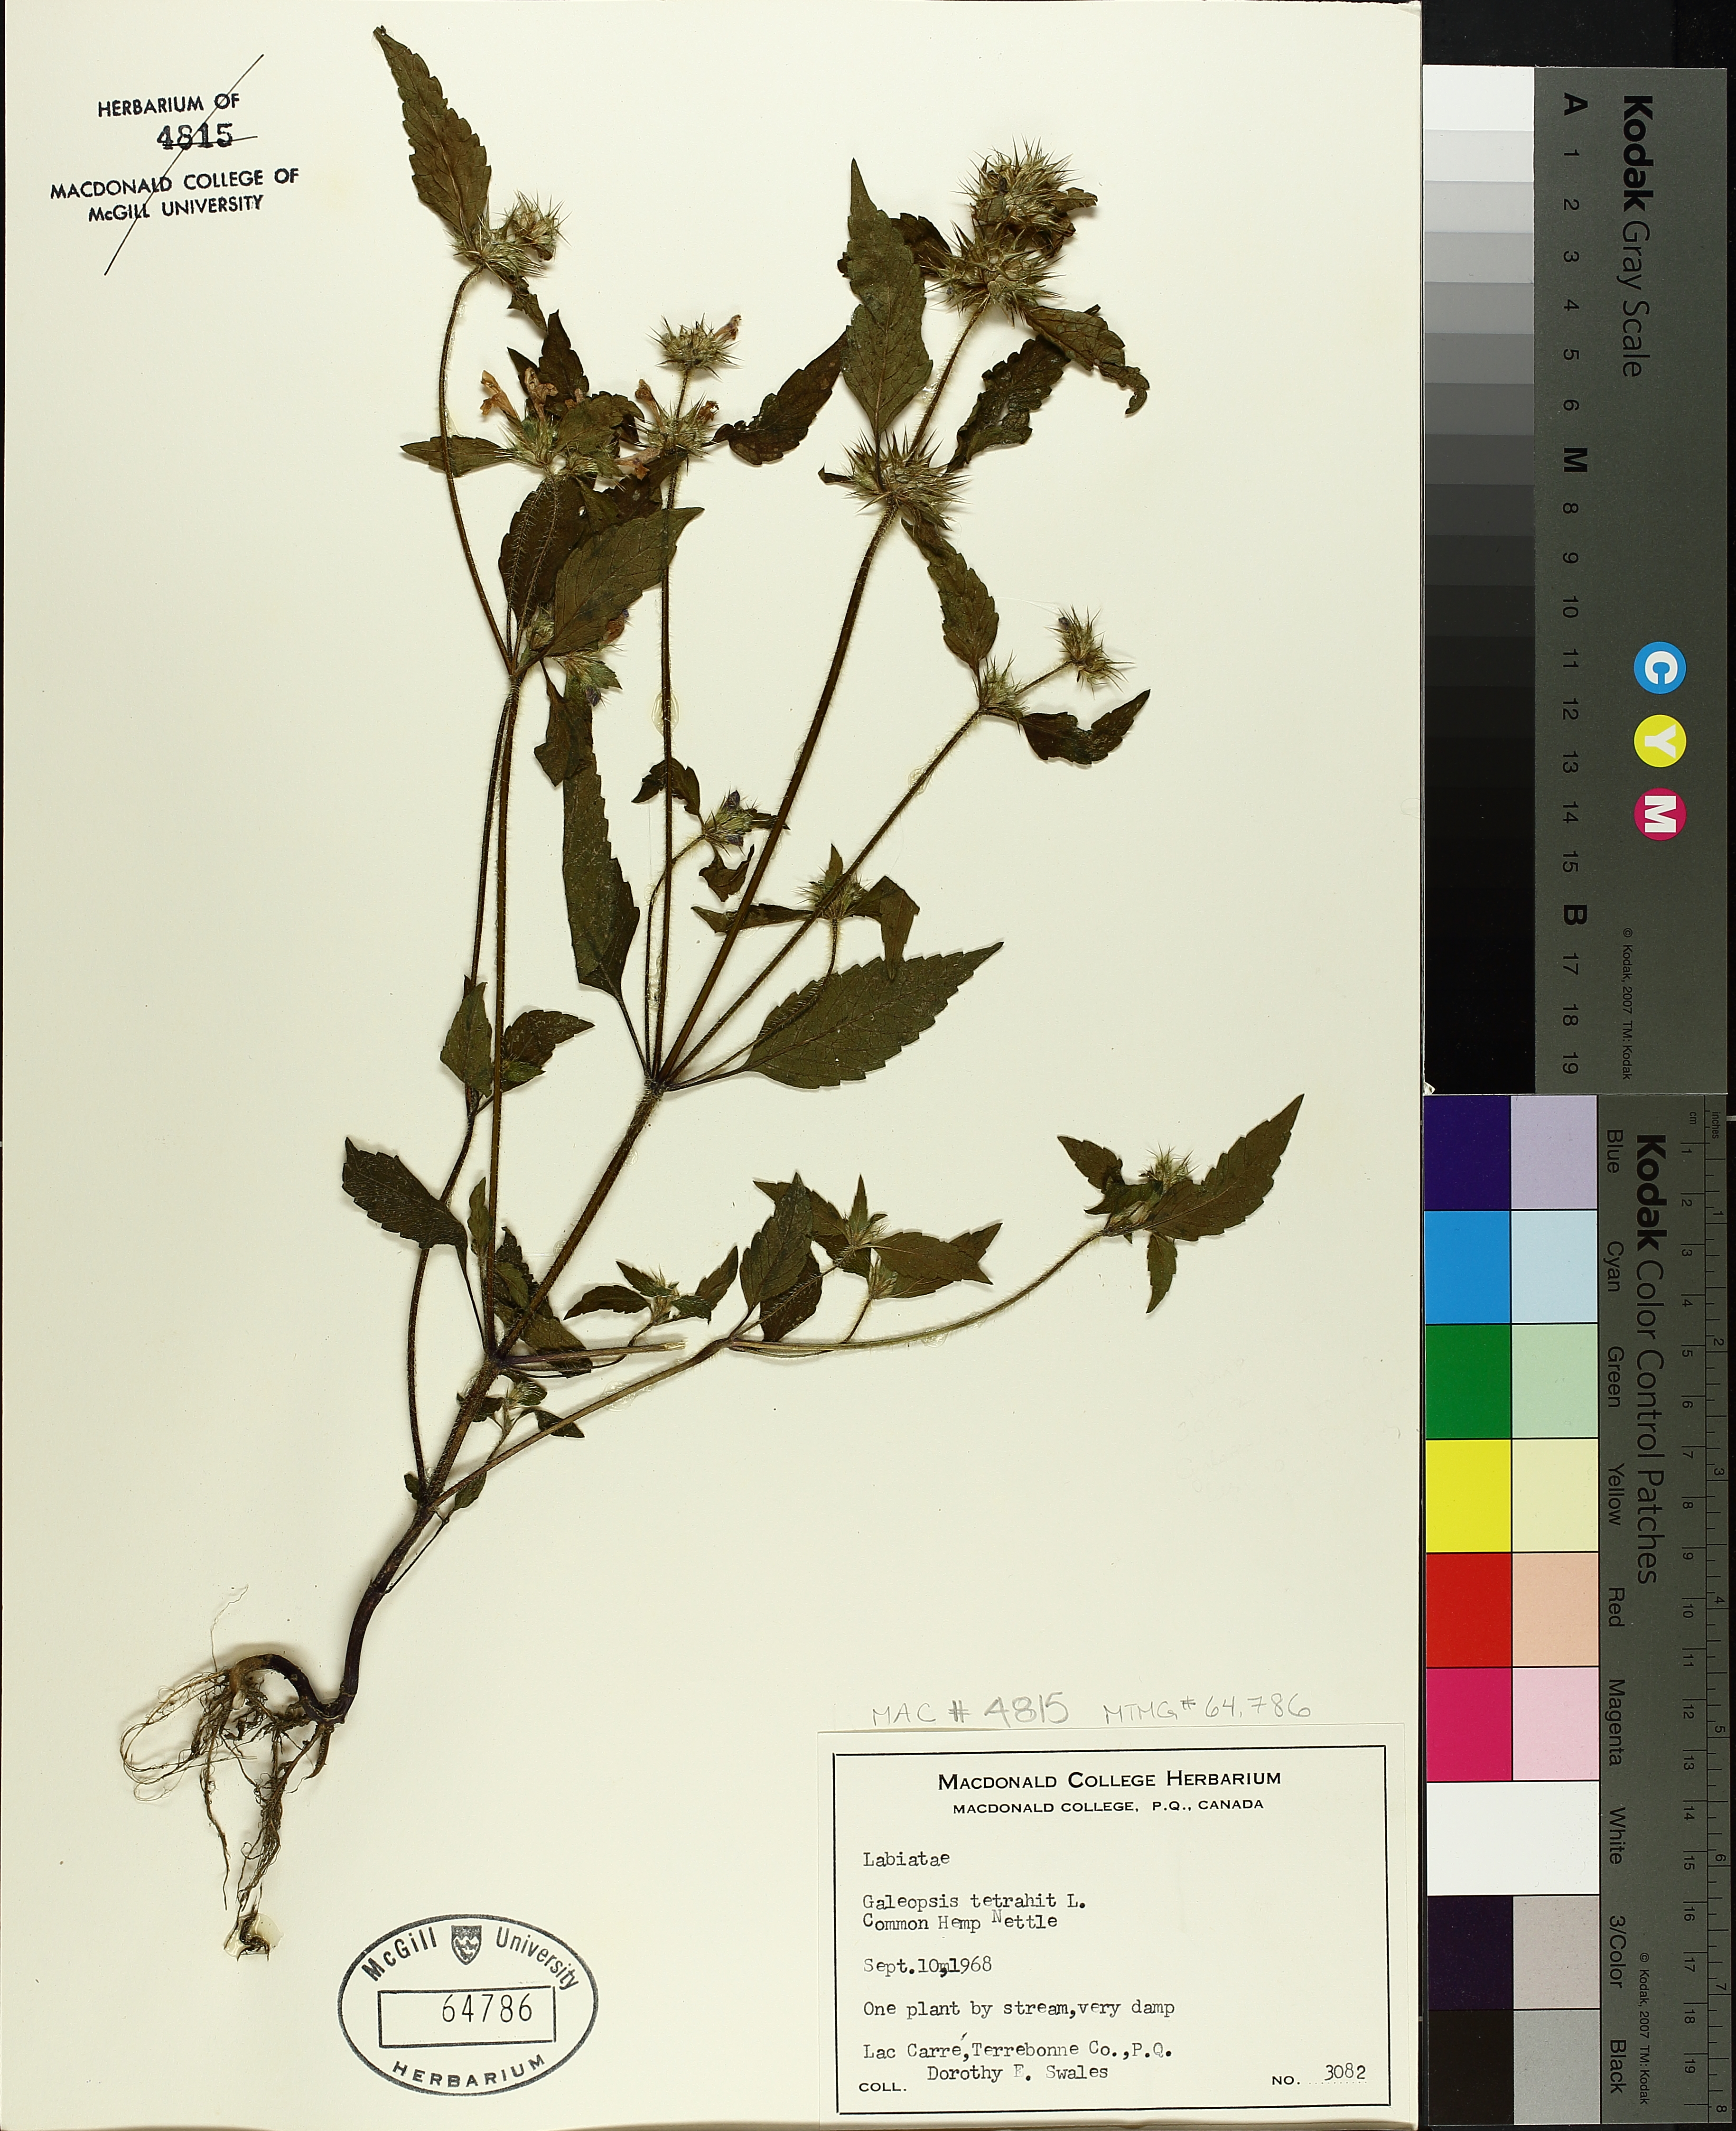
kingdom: Plantae
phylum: Tracheophyta
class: Magnoliopsida
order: Lamiales
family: Lamiaceae
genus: Galeopsis
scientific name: Galeopsis tetrahit
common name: Common hemp-nettle
